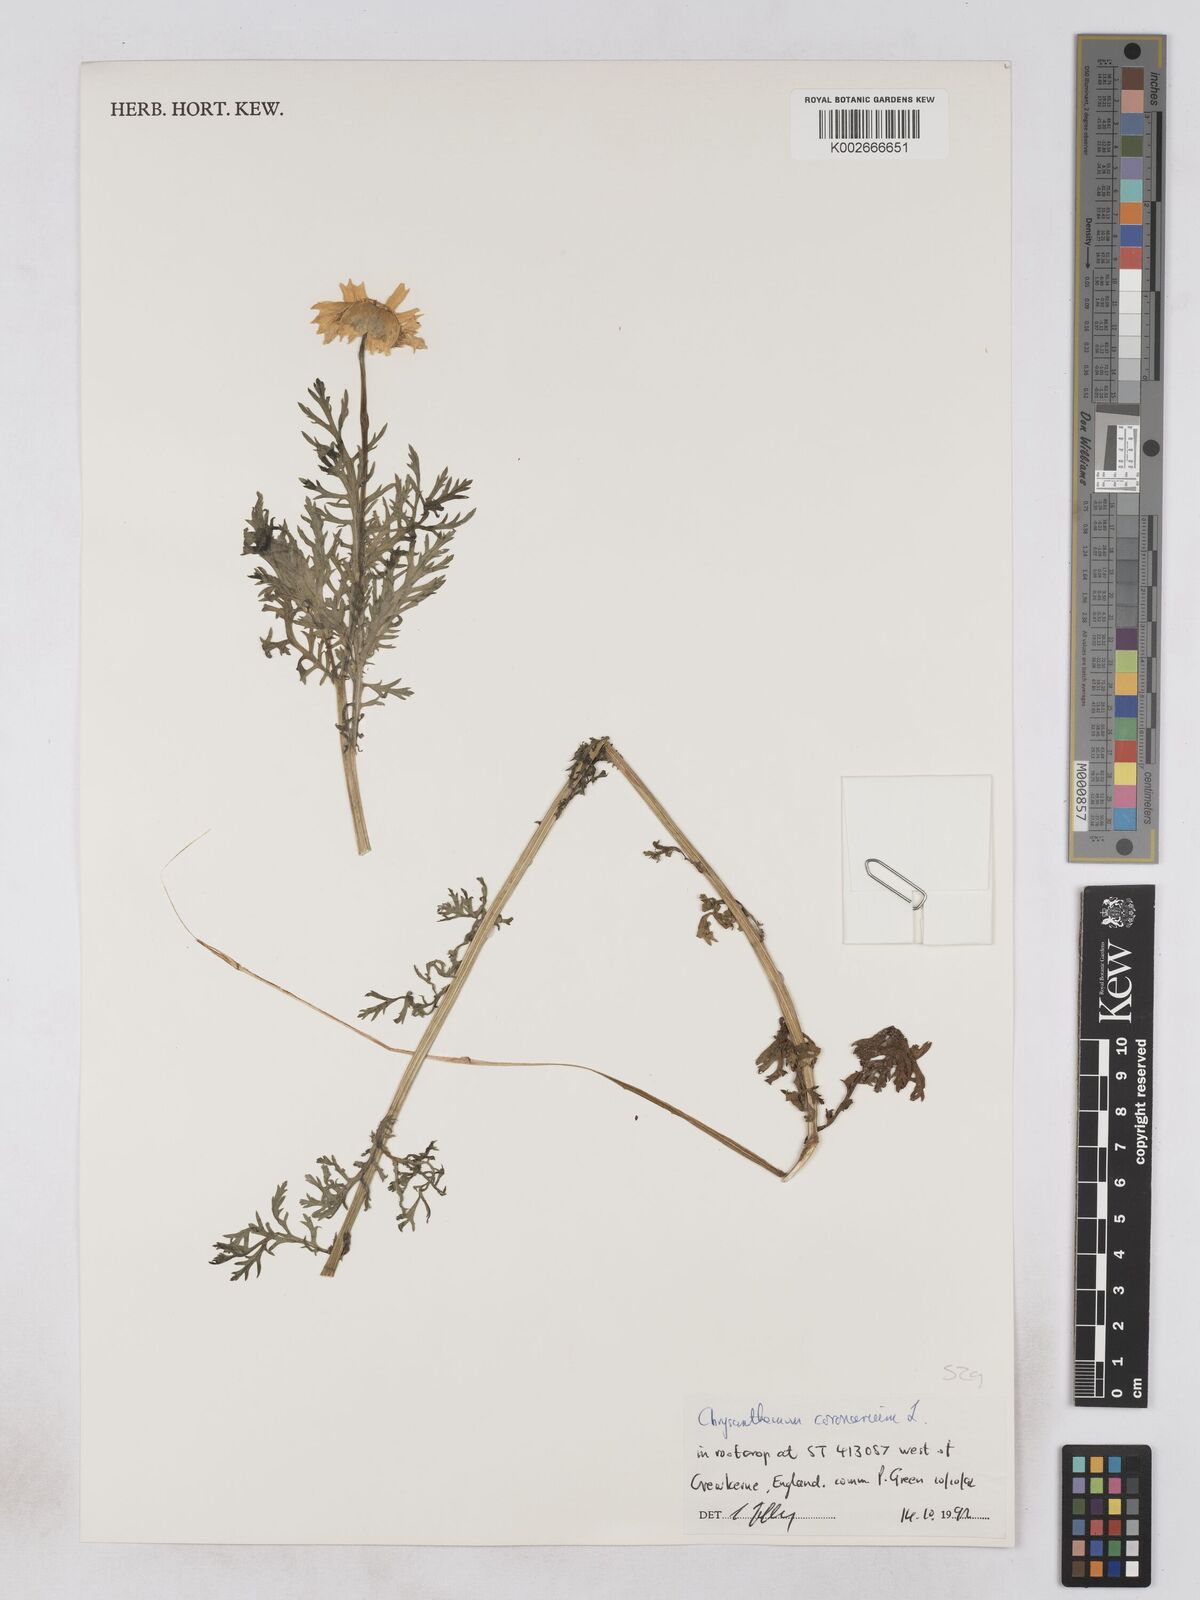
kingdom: Plantae
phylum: Tracheophyta
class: Magnoliopsida
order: Asterales
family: Asteraceae
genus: Glebionis
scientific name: Glebionis coronaria
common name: Crowndaisy
